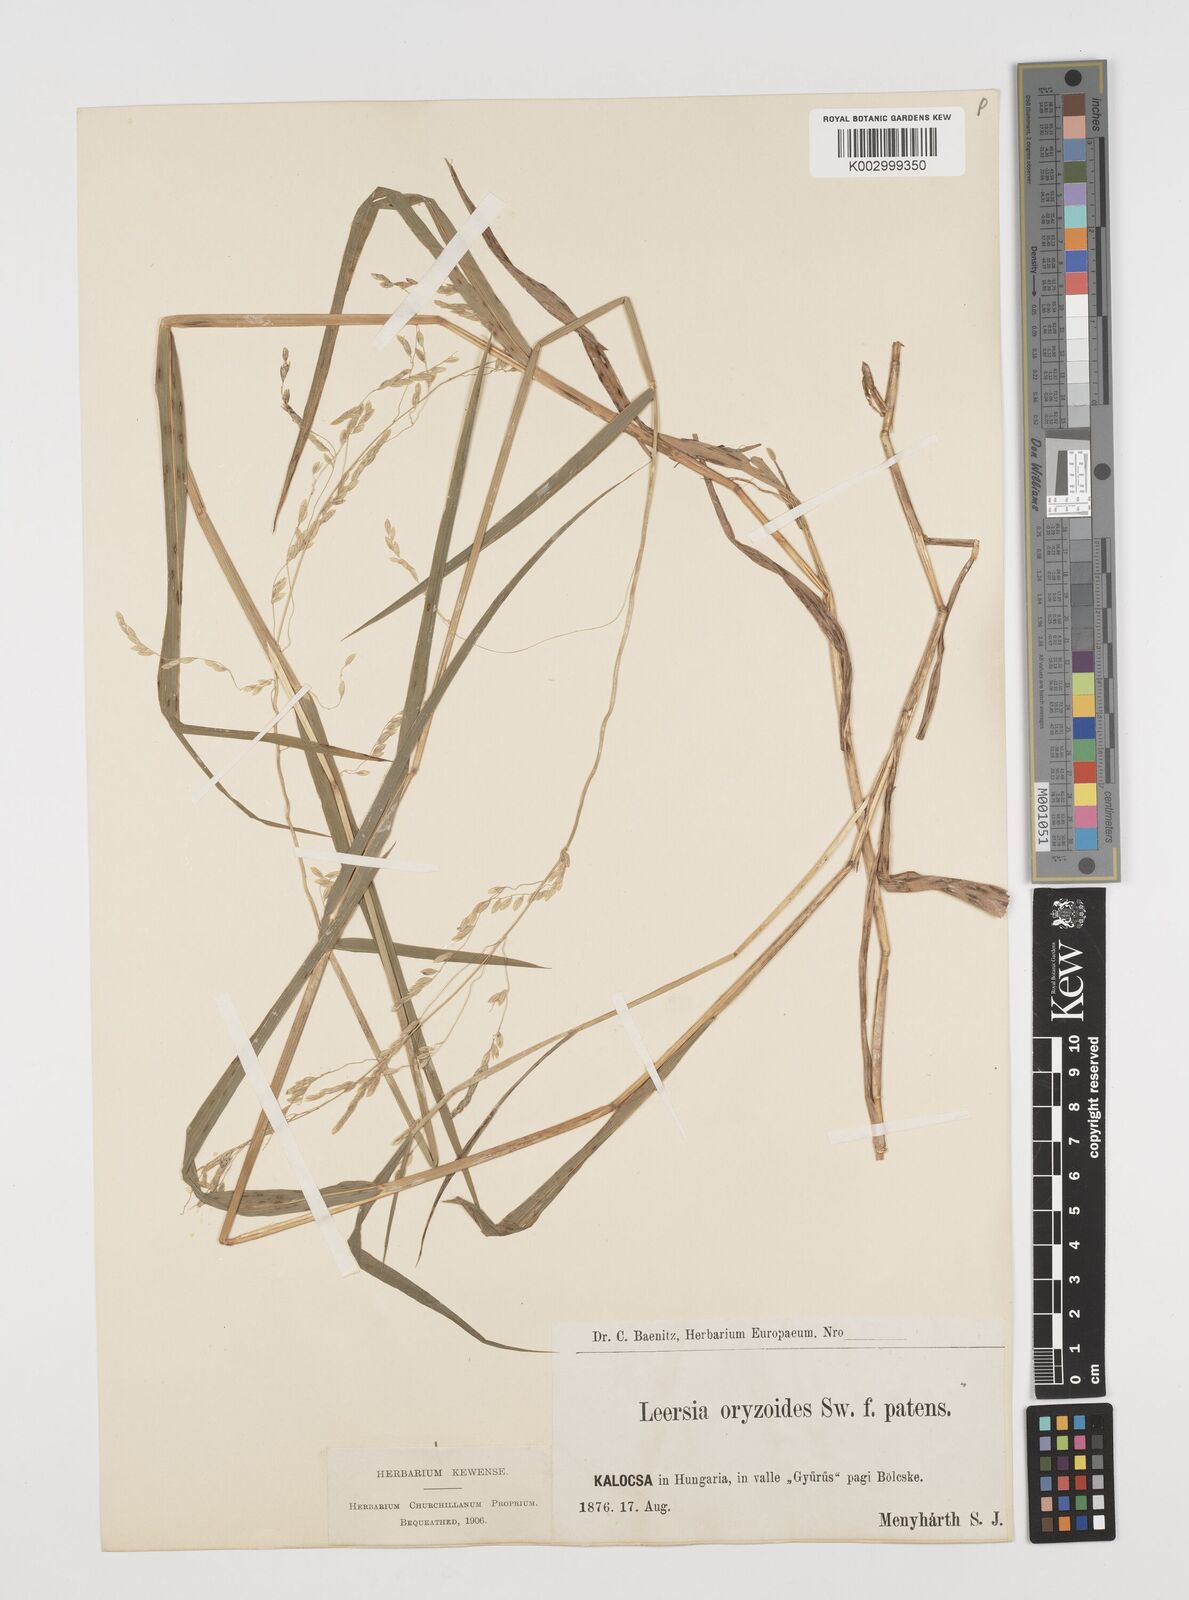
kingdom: Plantae
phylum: Tracheophyta
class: Liliopsida
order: Poales
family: Poaceae
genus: Leersia
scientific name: Leersia oryzoides
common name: Cut-grass
